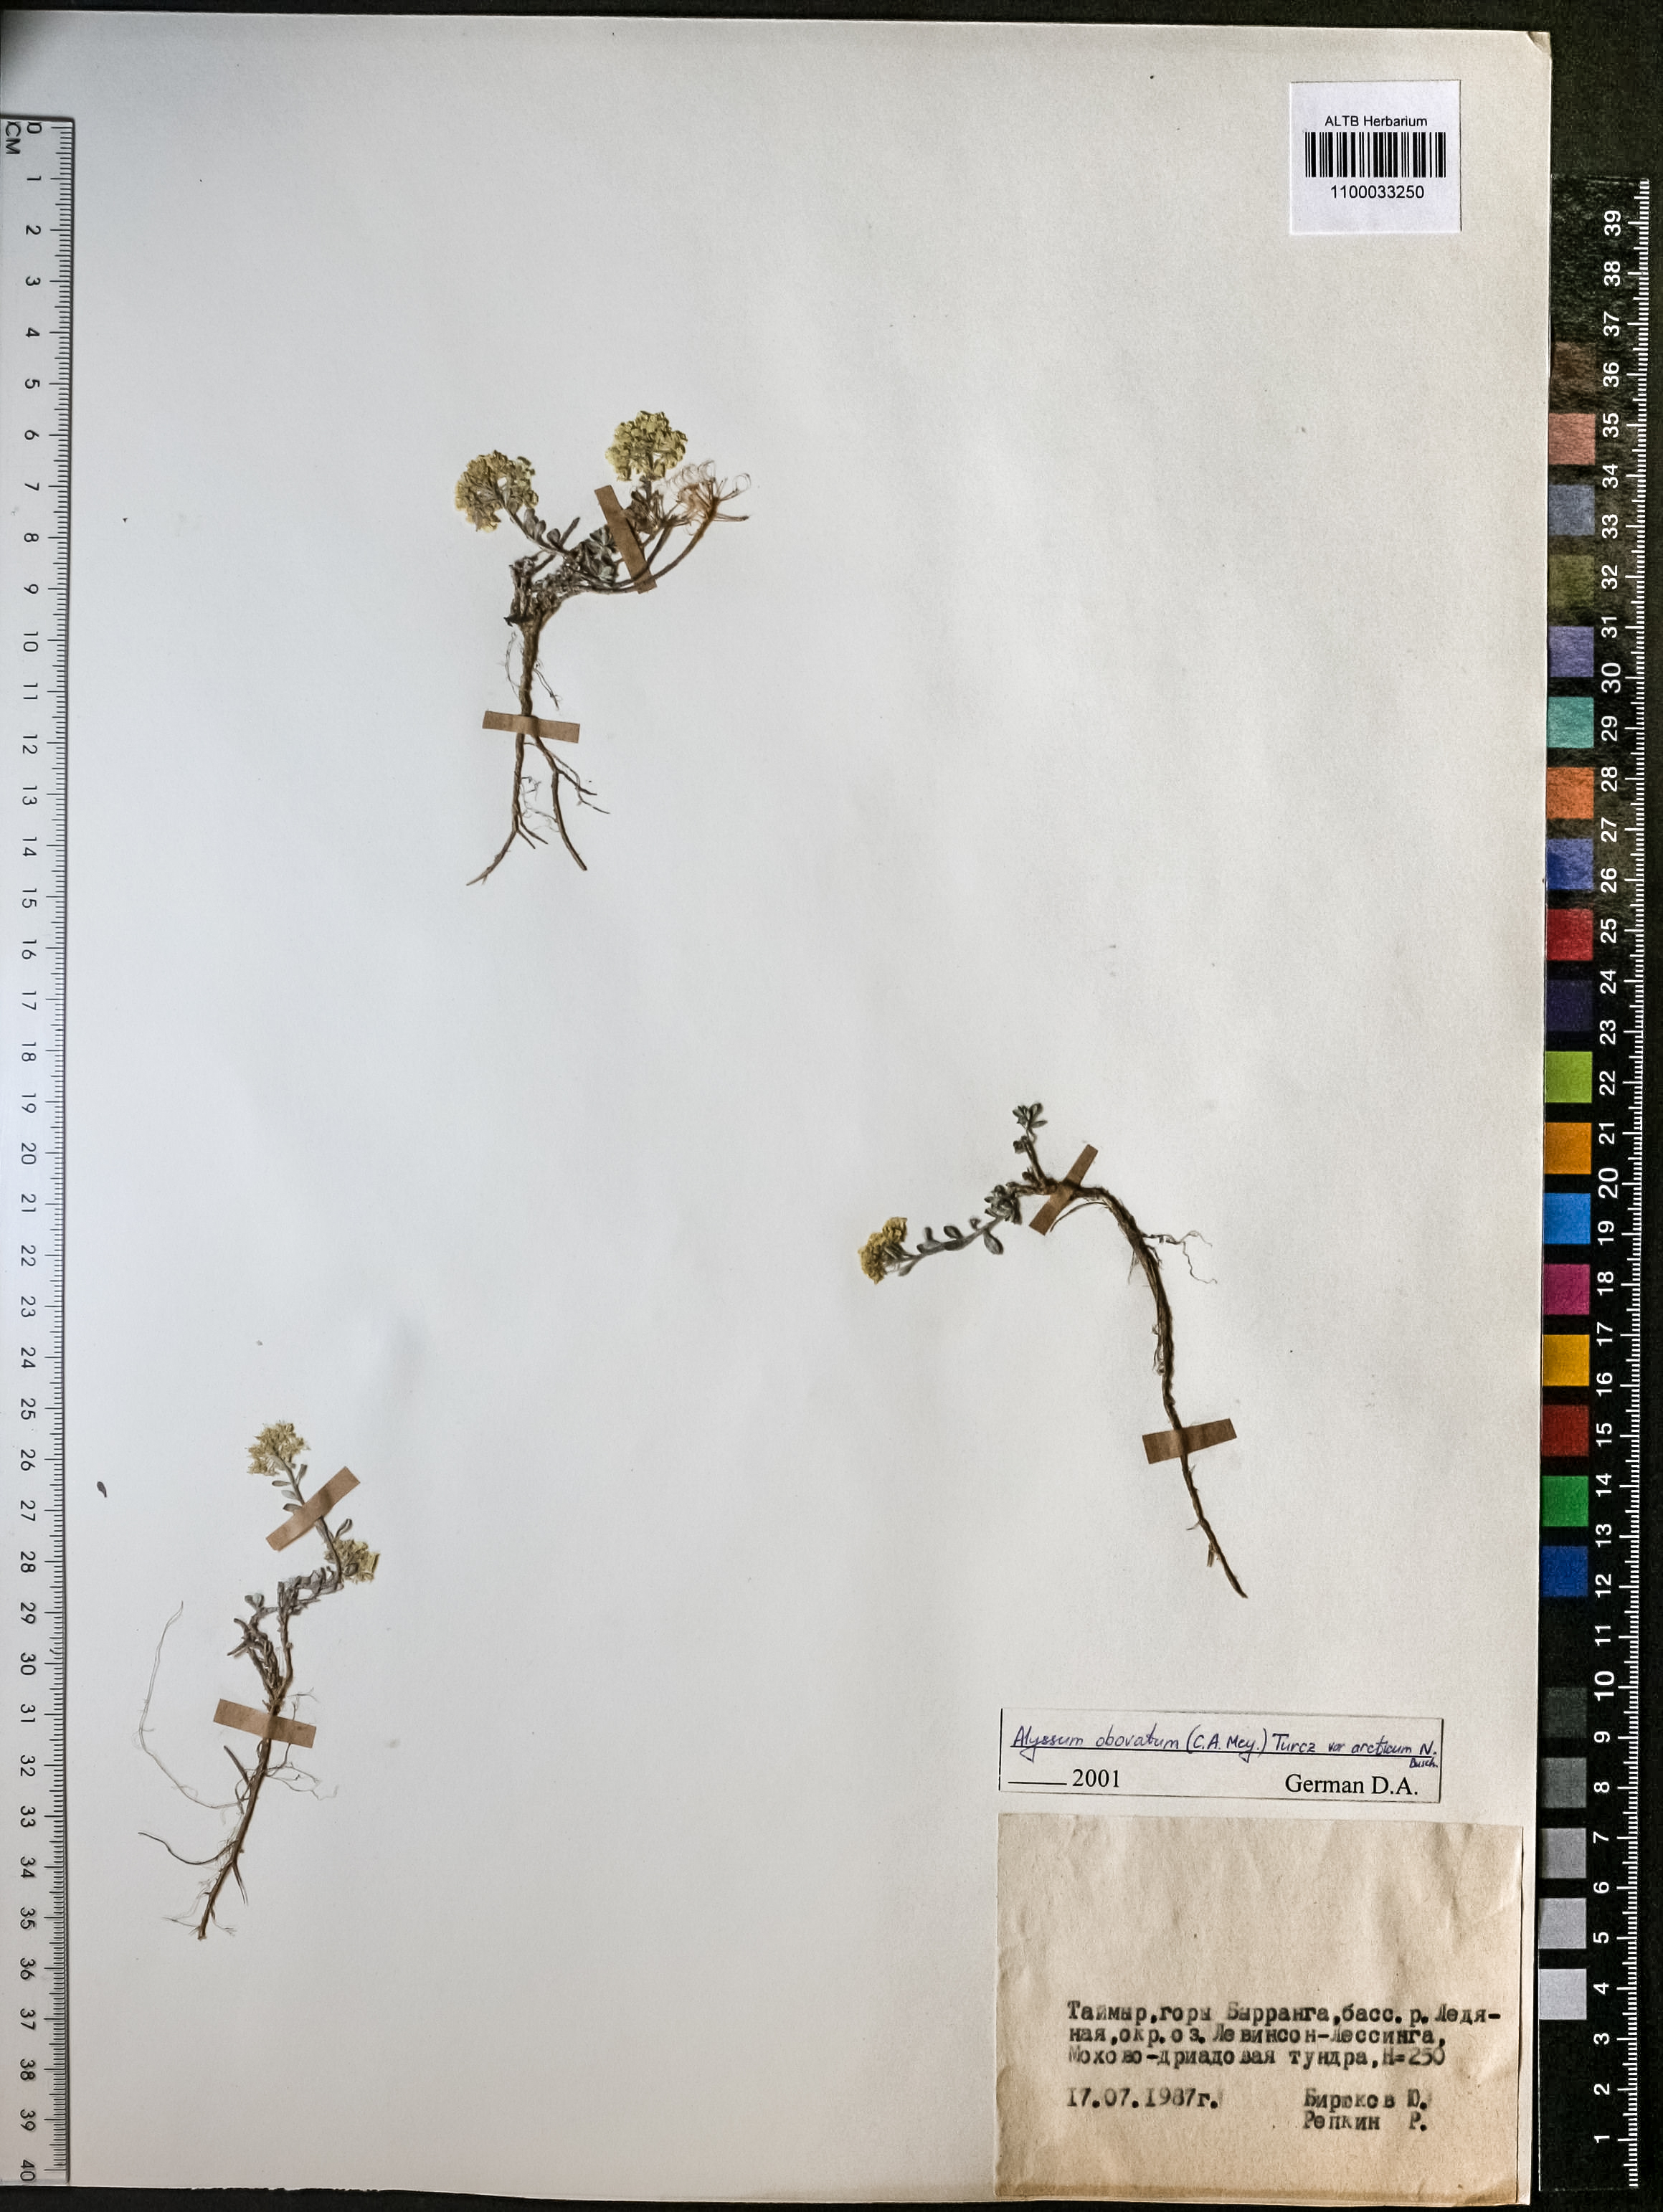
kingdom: Plantae
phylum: Tracheophyta
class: Magnoliopsida
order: Brassicales
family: Brassicaceae
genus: Odontarrhena
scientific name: Odontarrhena obovata
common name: American alyssum
